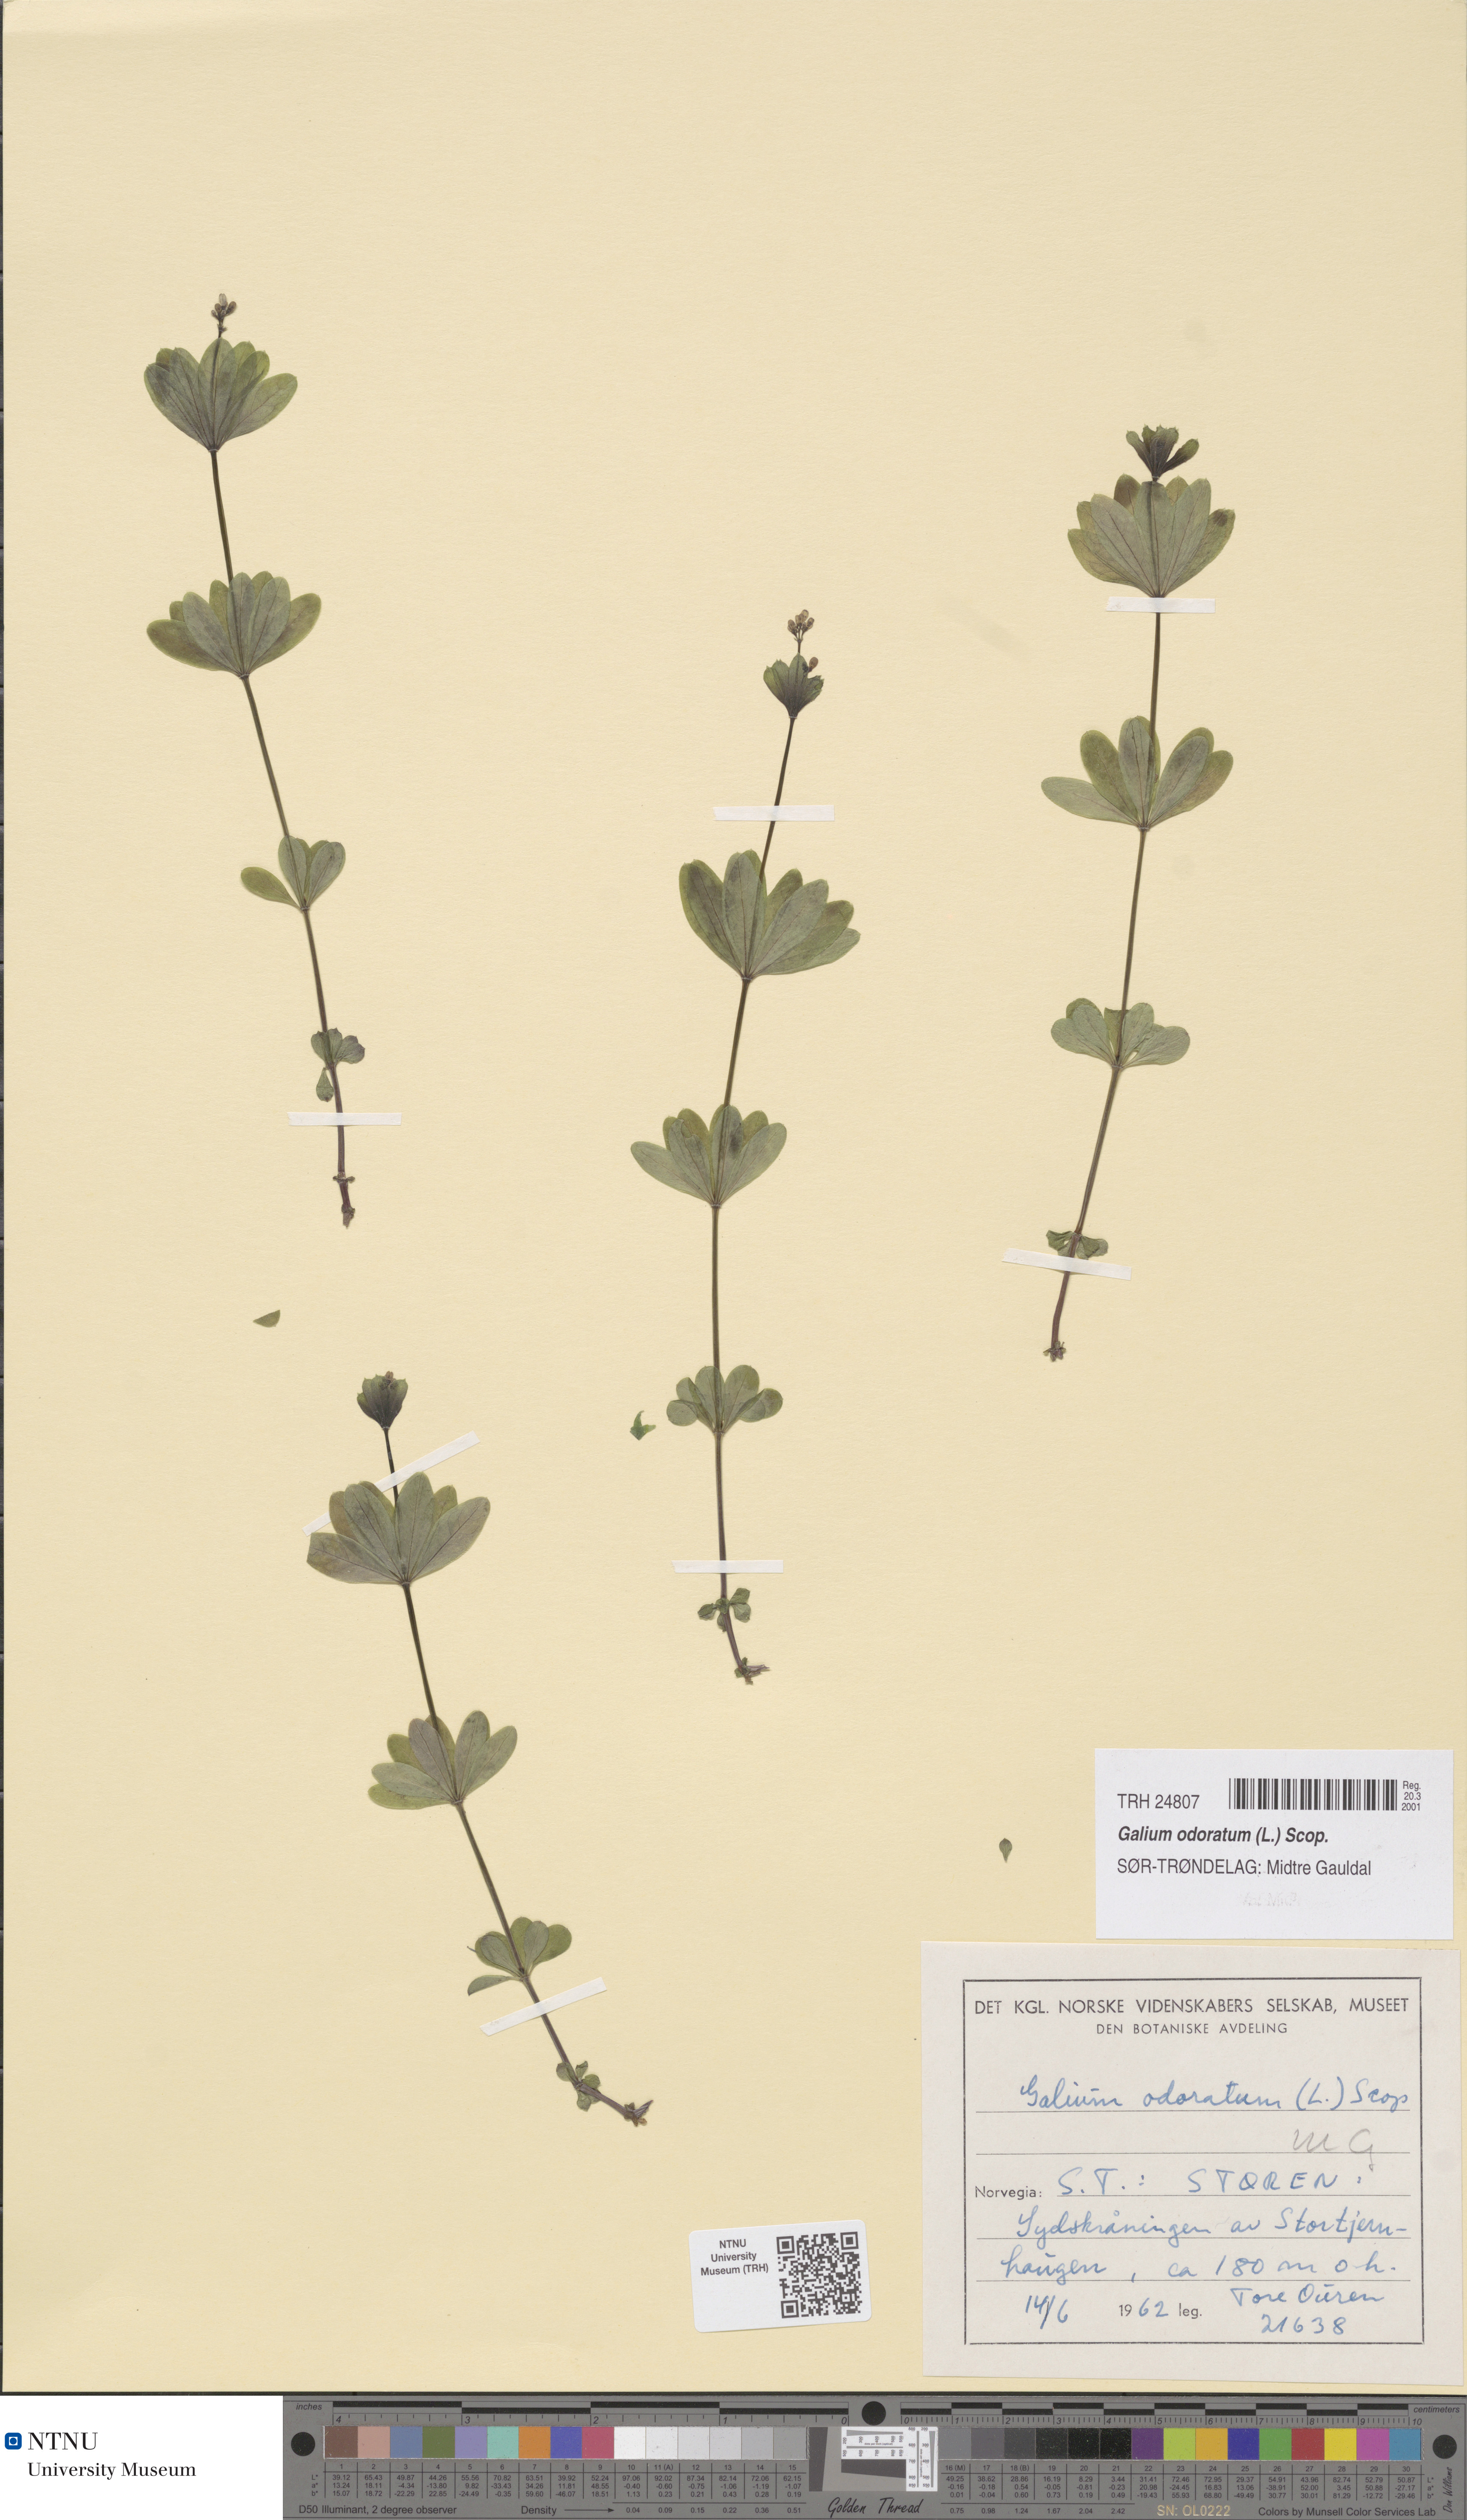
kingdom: Plantae
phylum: Tracheophyta
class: Magnoliopsida
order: Gentianales
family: Rubiaceae
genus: Galium
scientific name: Galium odoratum
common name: Sweet woodruff
